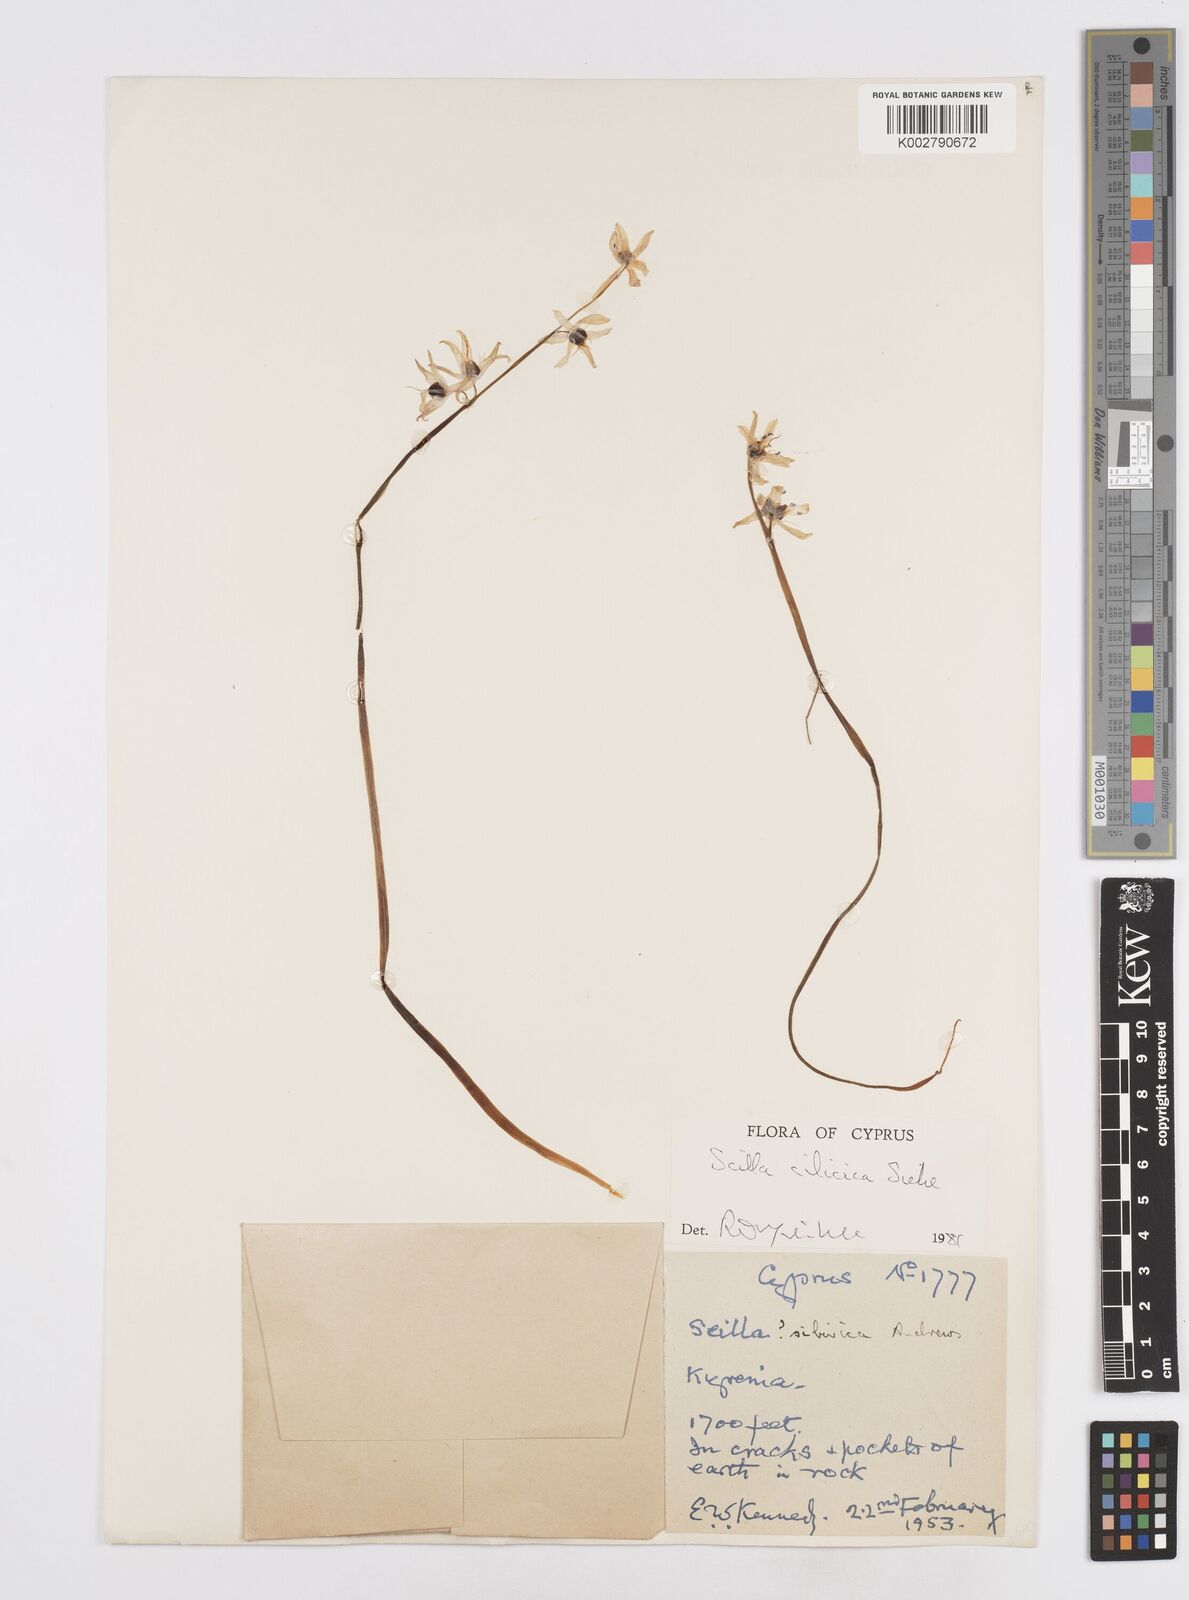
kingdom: Plantae
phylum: Tracheophyta
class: Liliopsida
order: Asparagales
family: Asparagaceae
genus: Scilla
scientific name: Scilla siberica
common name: Siberian squill
